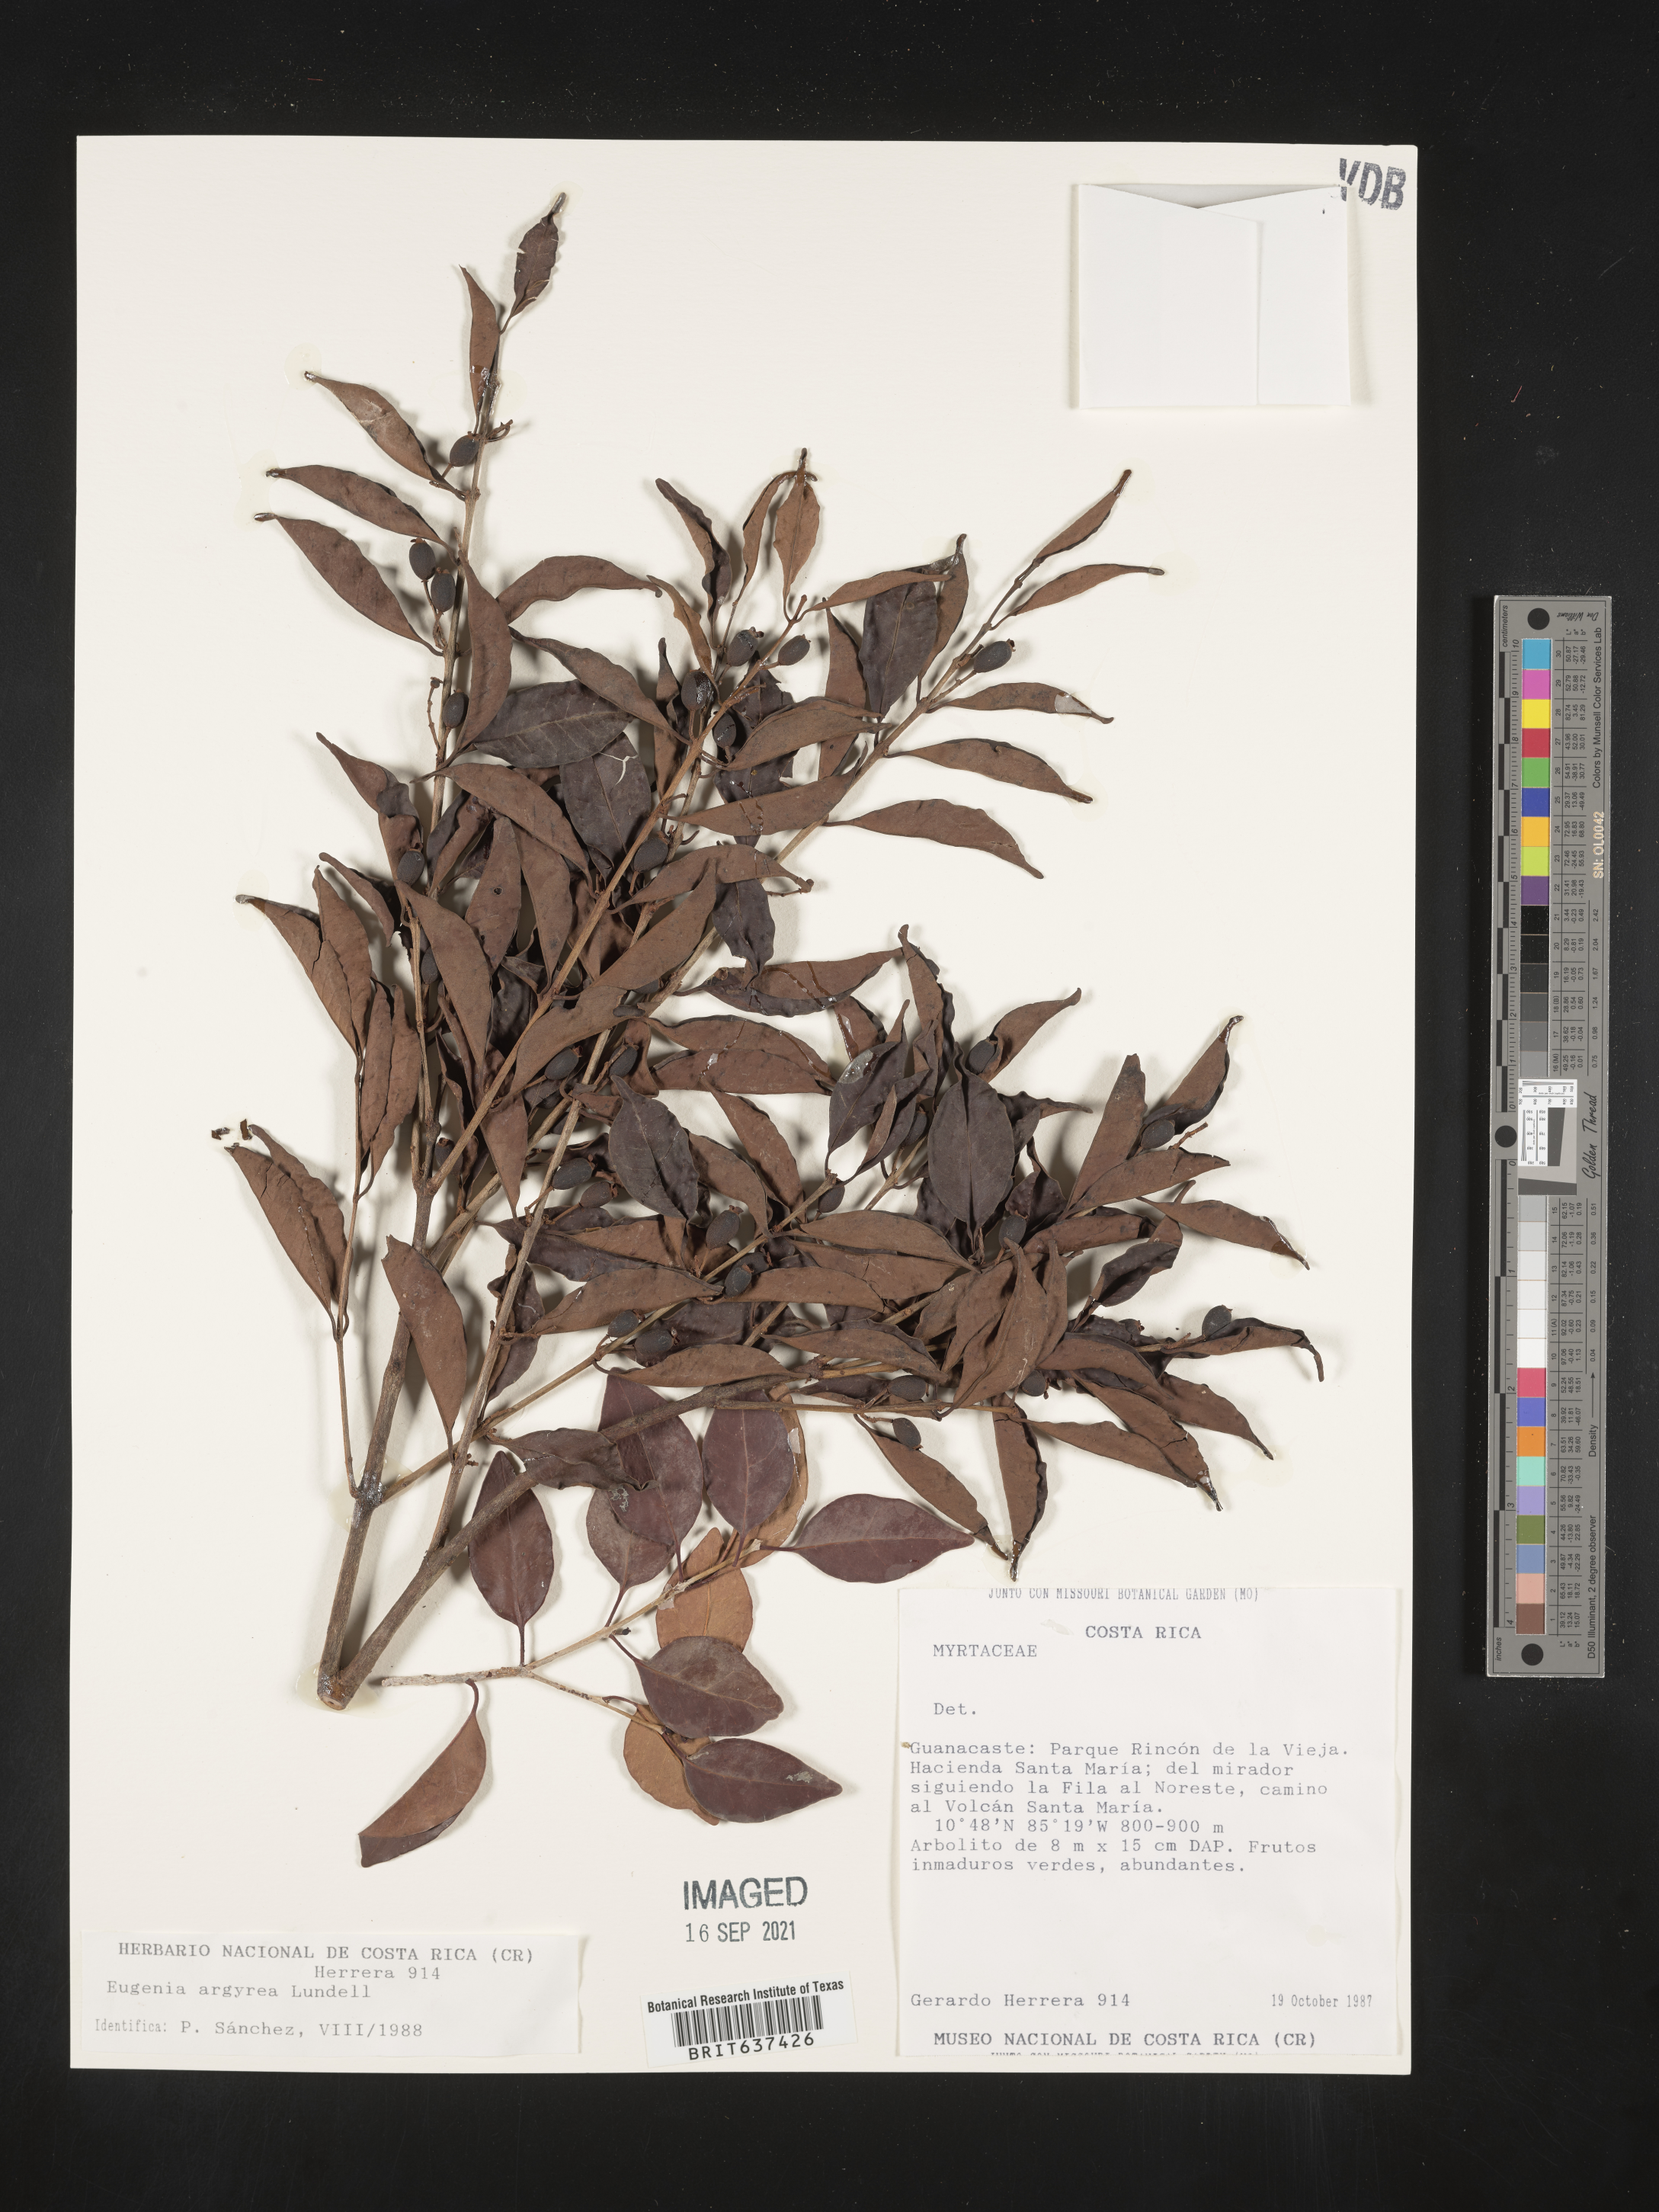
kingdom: Plantae
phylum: Tracheophyta
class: Magnoliopsida
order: Myrtales
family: Myrtaceae
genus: Eugenia
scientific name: Eugenia
